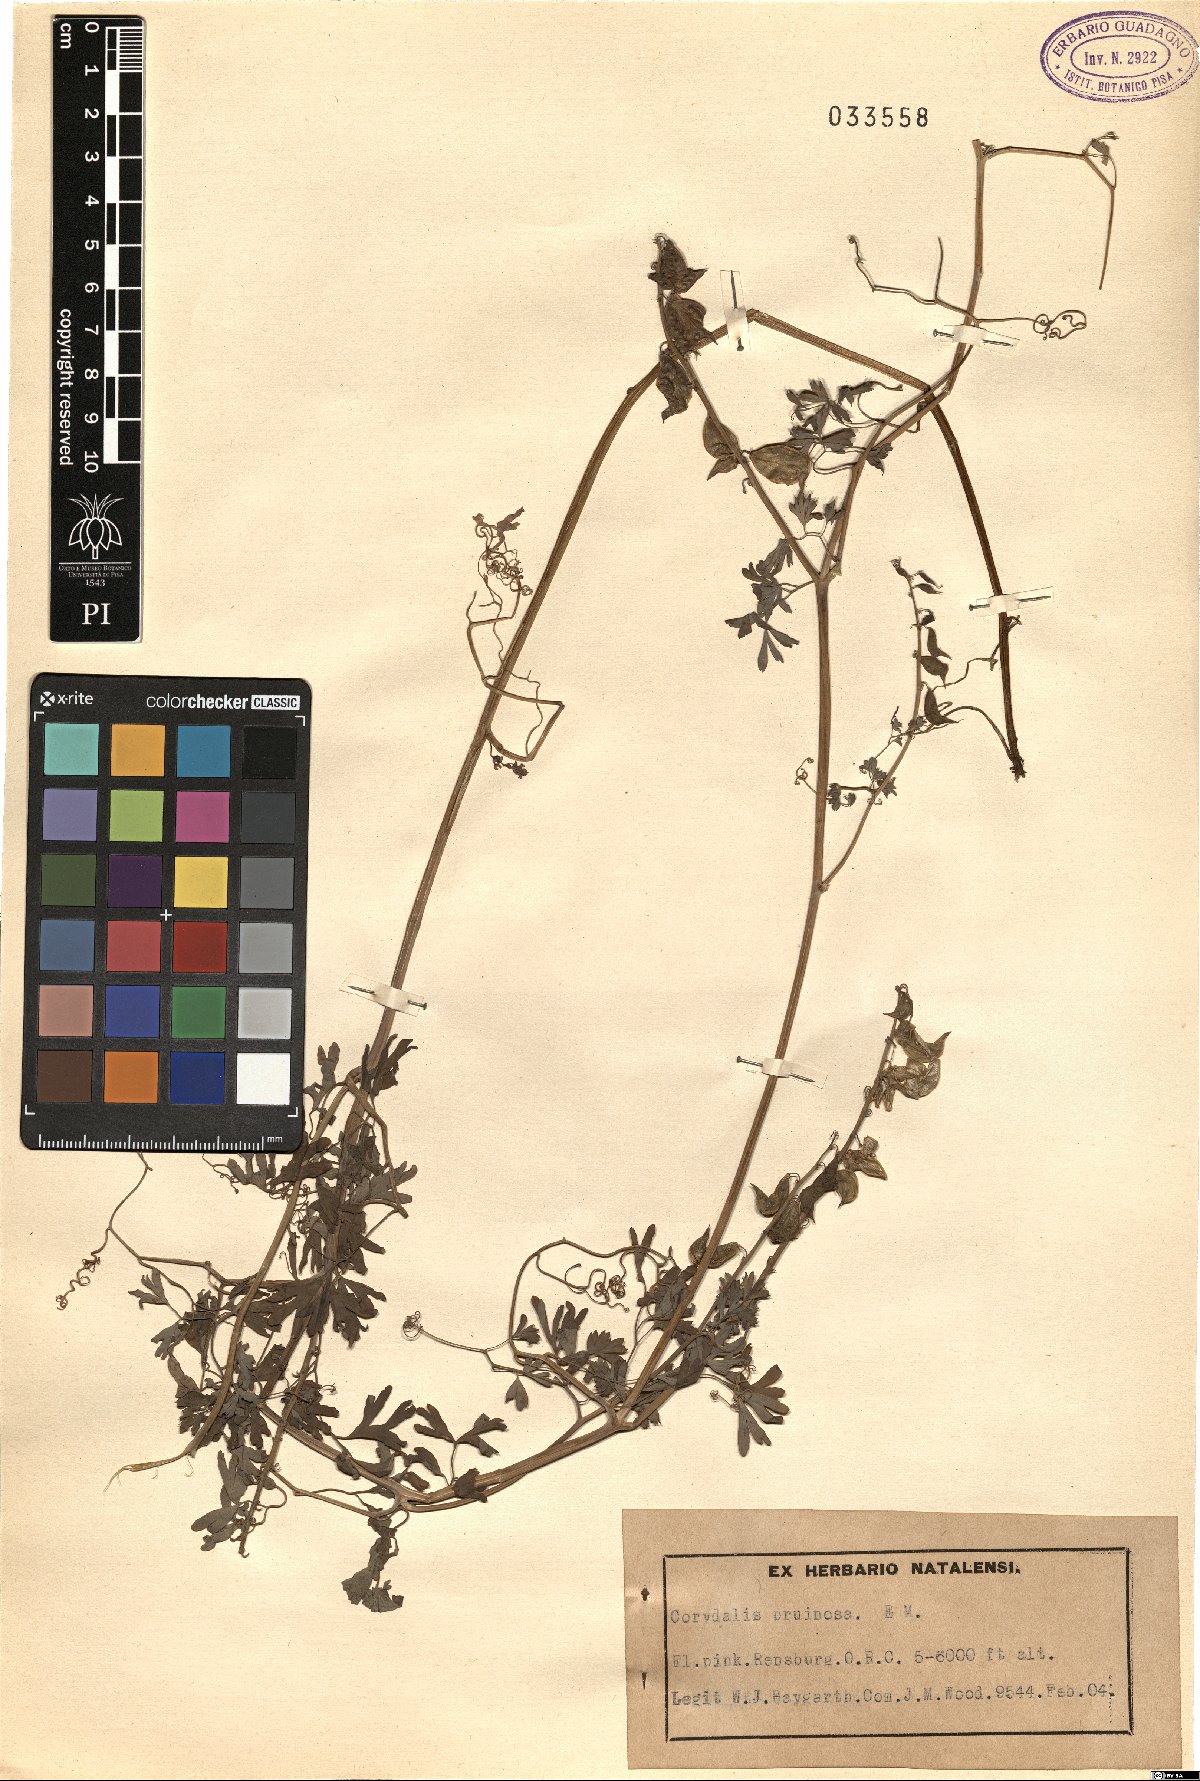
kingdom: Plantae
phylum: Tracheophyta
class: Magnoliopsida
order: Ranunculales
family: Papaveraceae
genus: Cysticapnos
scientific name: Cysticapnos pruinosa
